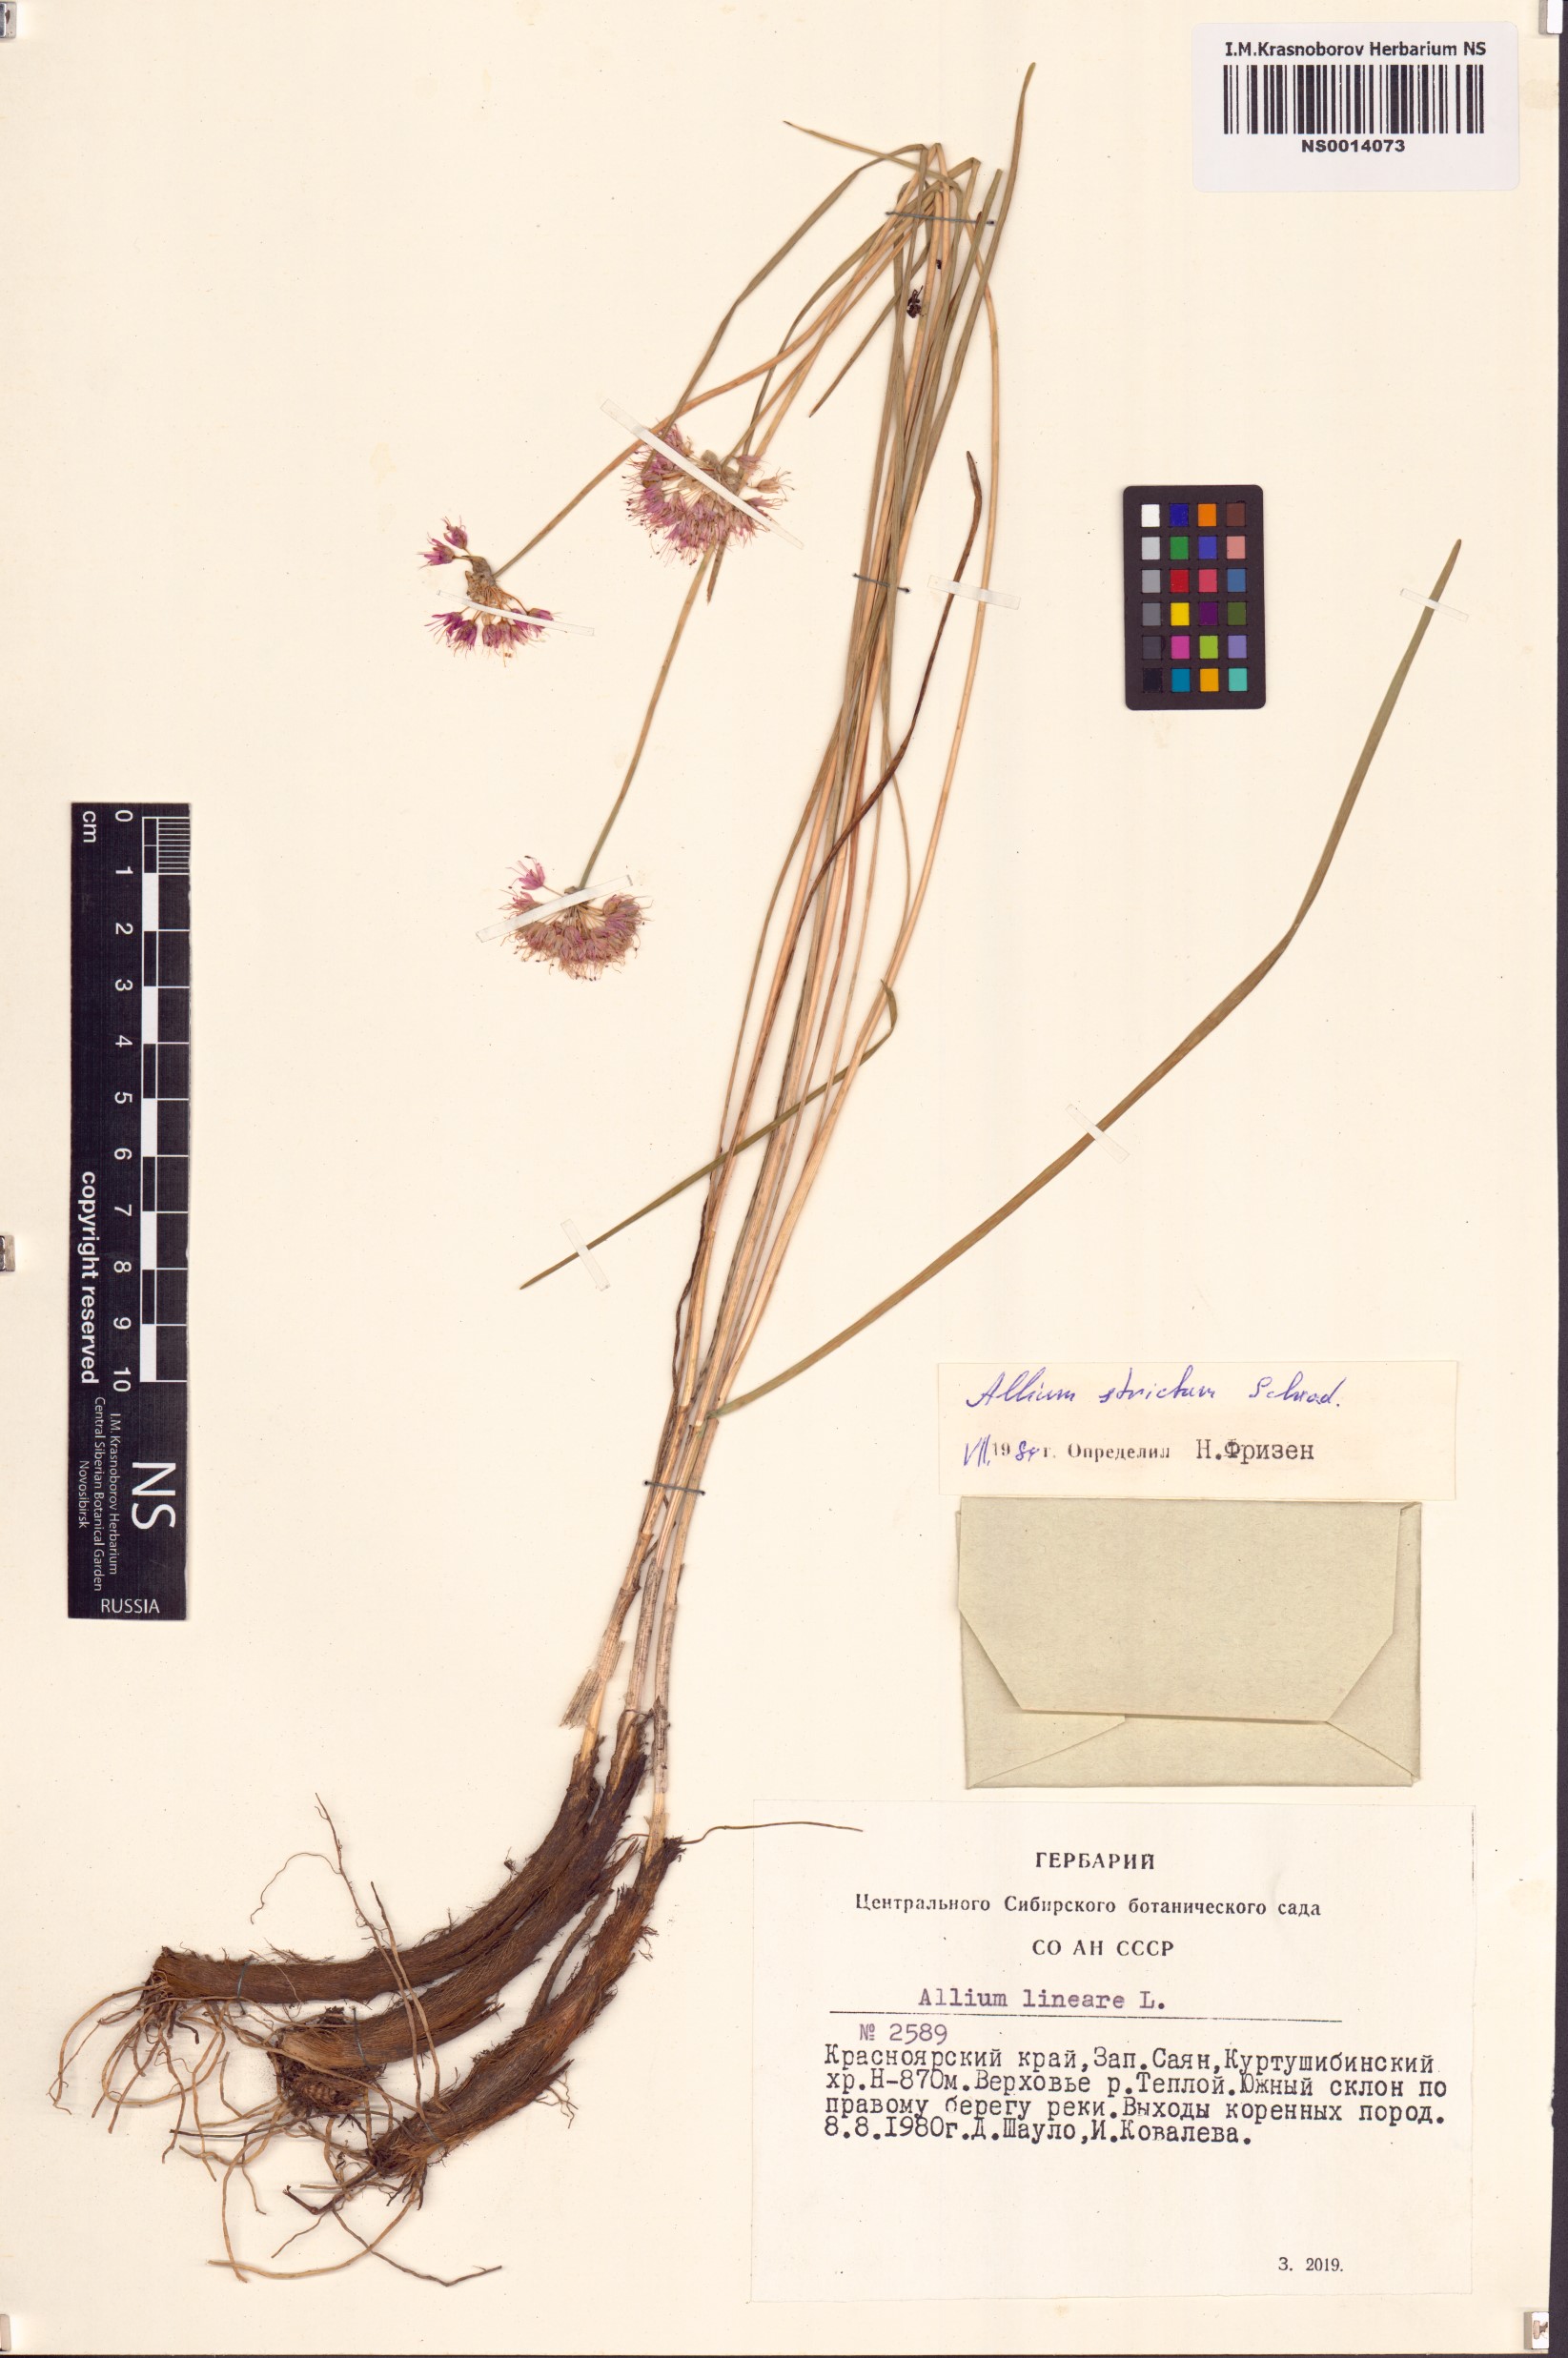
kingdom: Plantae
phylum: Tracheophyta
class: Liliopsida
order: Asparagales
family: Amaryllidaceae
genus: Allium
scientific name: Allium strictum
